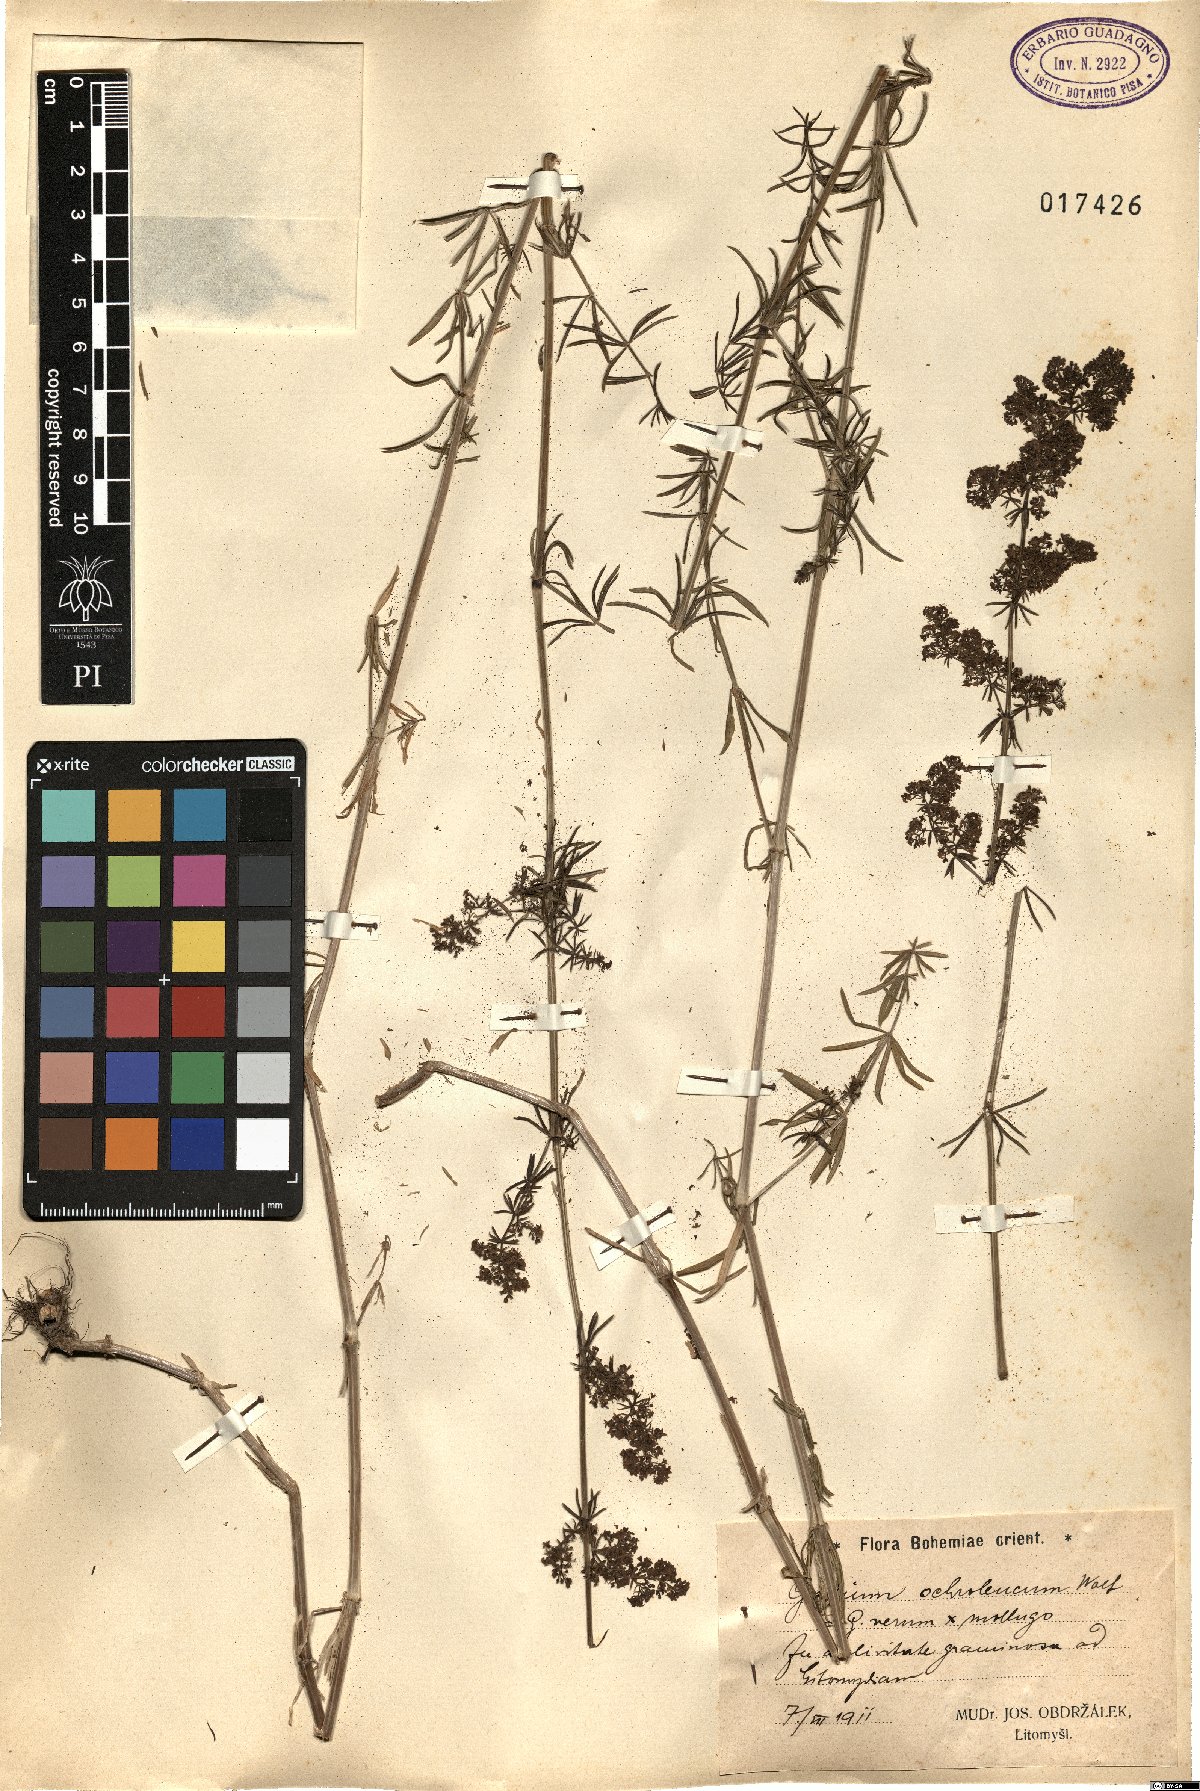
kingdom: Plantae
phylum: Tracheophyta
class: Magnoliopsida
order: Gentianales
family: Rubiaceae
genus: Galium
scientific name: Galium pomeranicum
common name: Bedstraw
